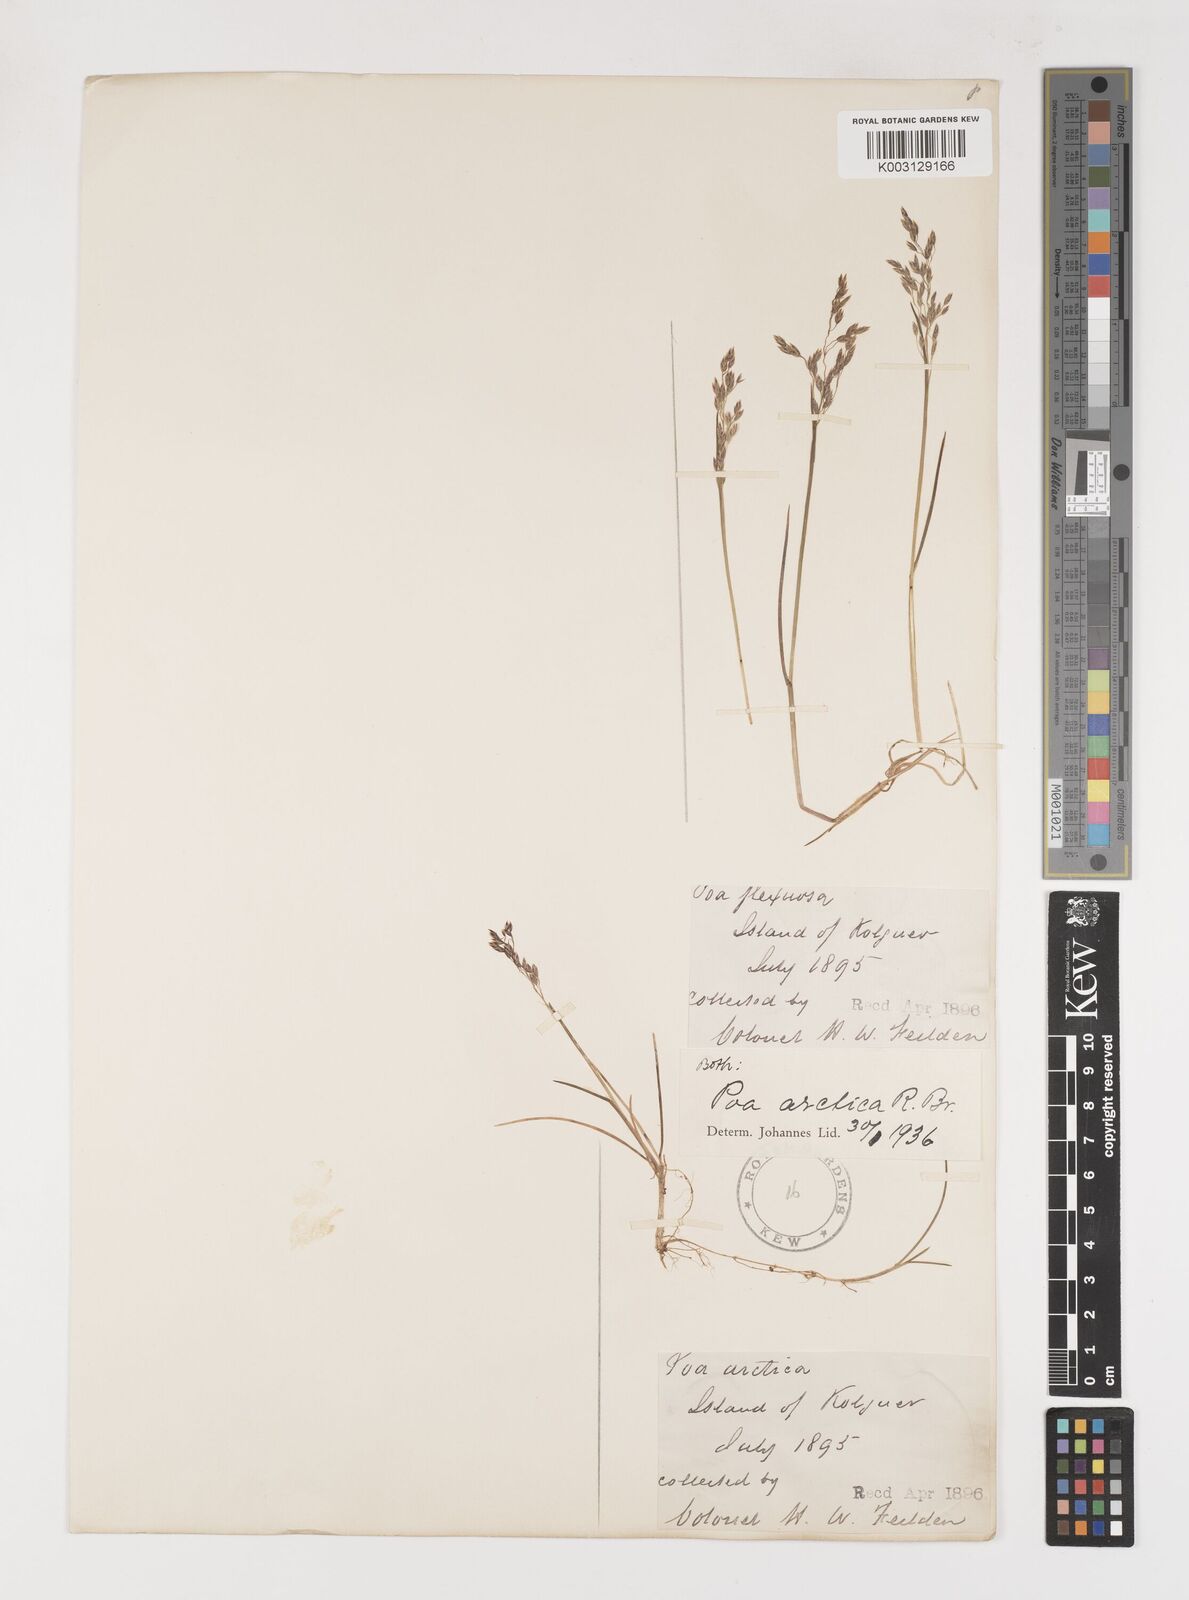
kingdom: Plantae
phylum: Tracheophyta
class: Liliopsida
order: Poales
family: Poaceae
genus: Poa
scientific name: Poa arctica
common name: Arctic bluegrass
